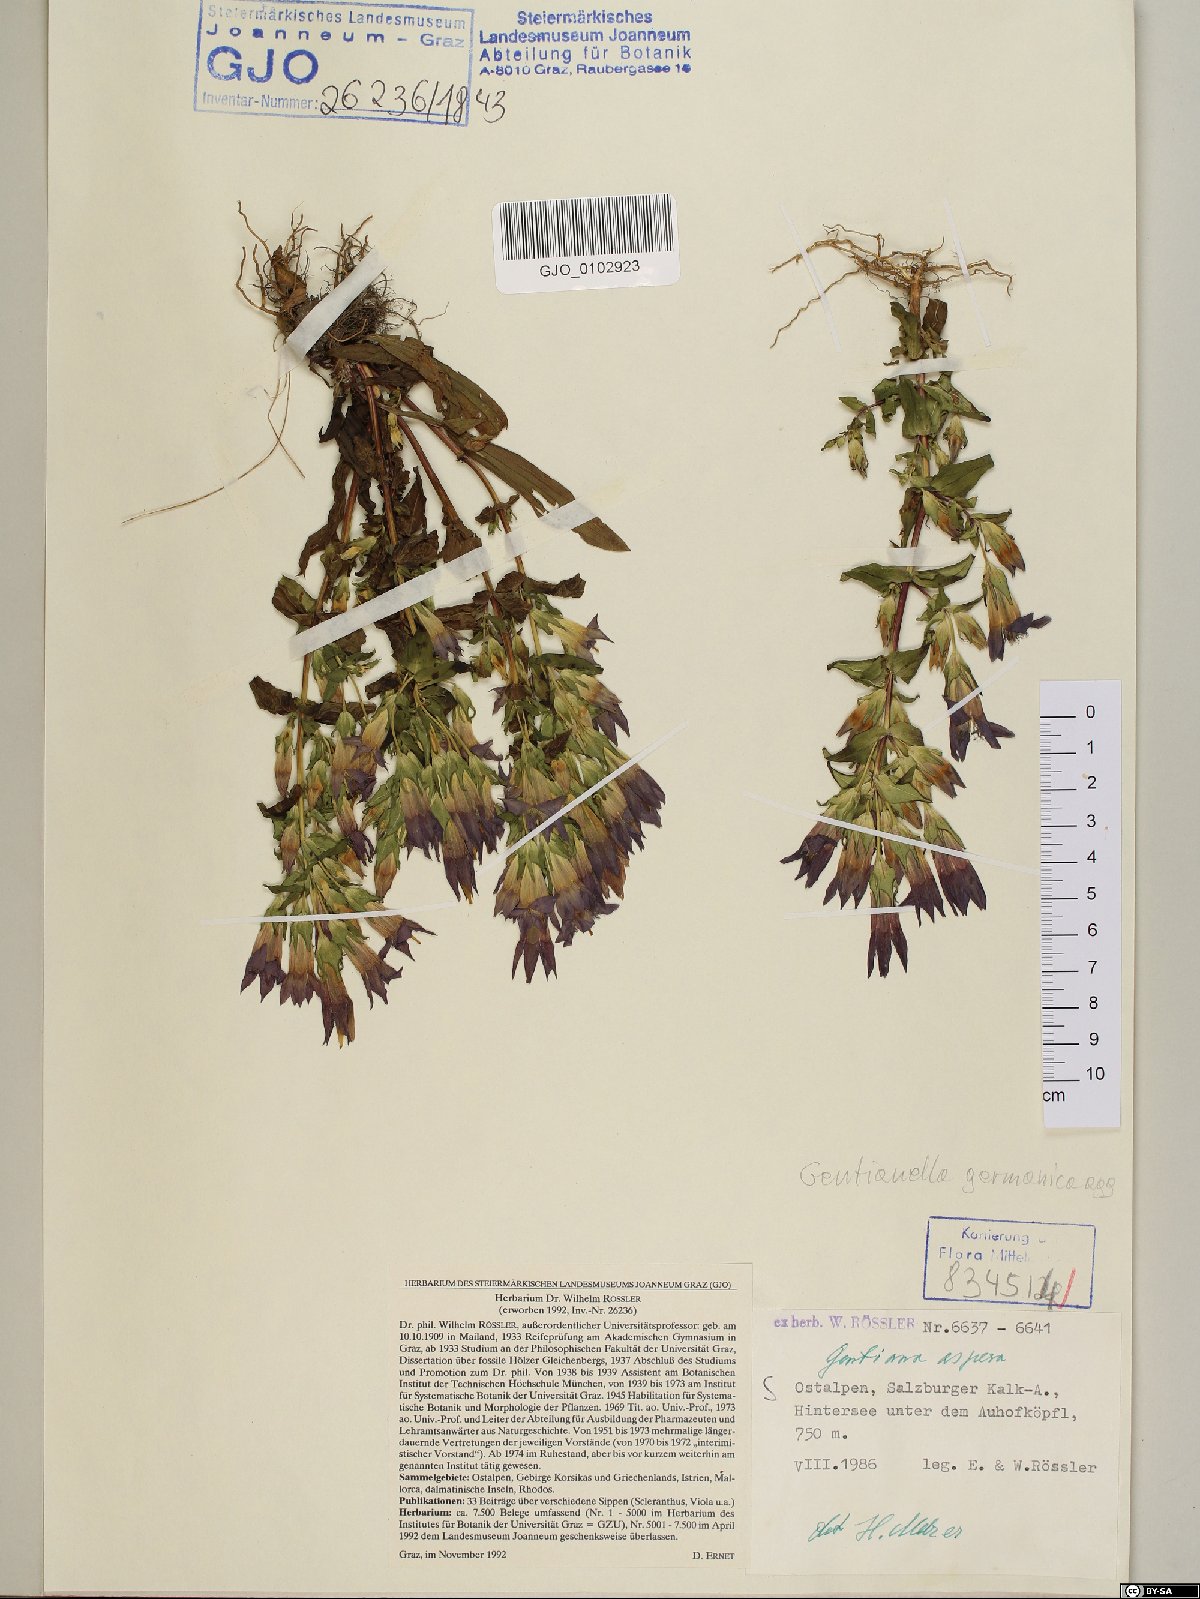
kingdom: Plantae
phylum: Tracheophyta
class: Magnoliopsida
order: Gentianales
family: Gentianaceae
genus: Gentianella
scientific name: Gentianella obtusifolia
